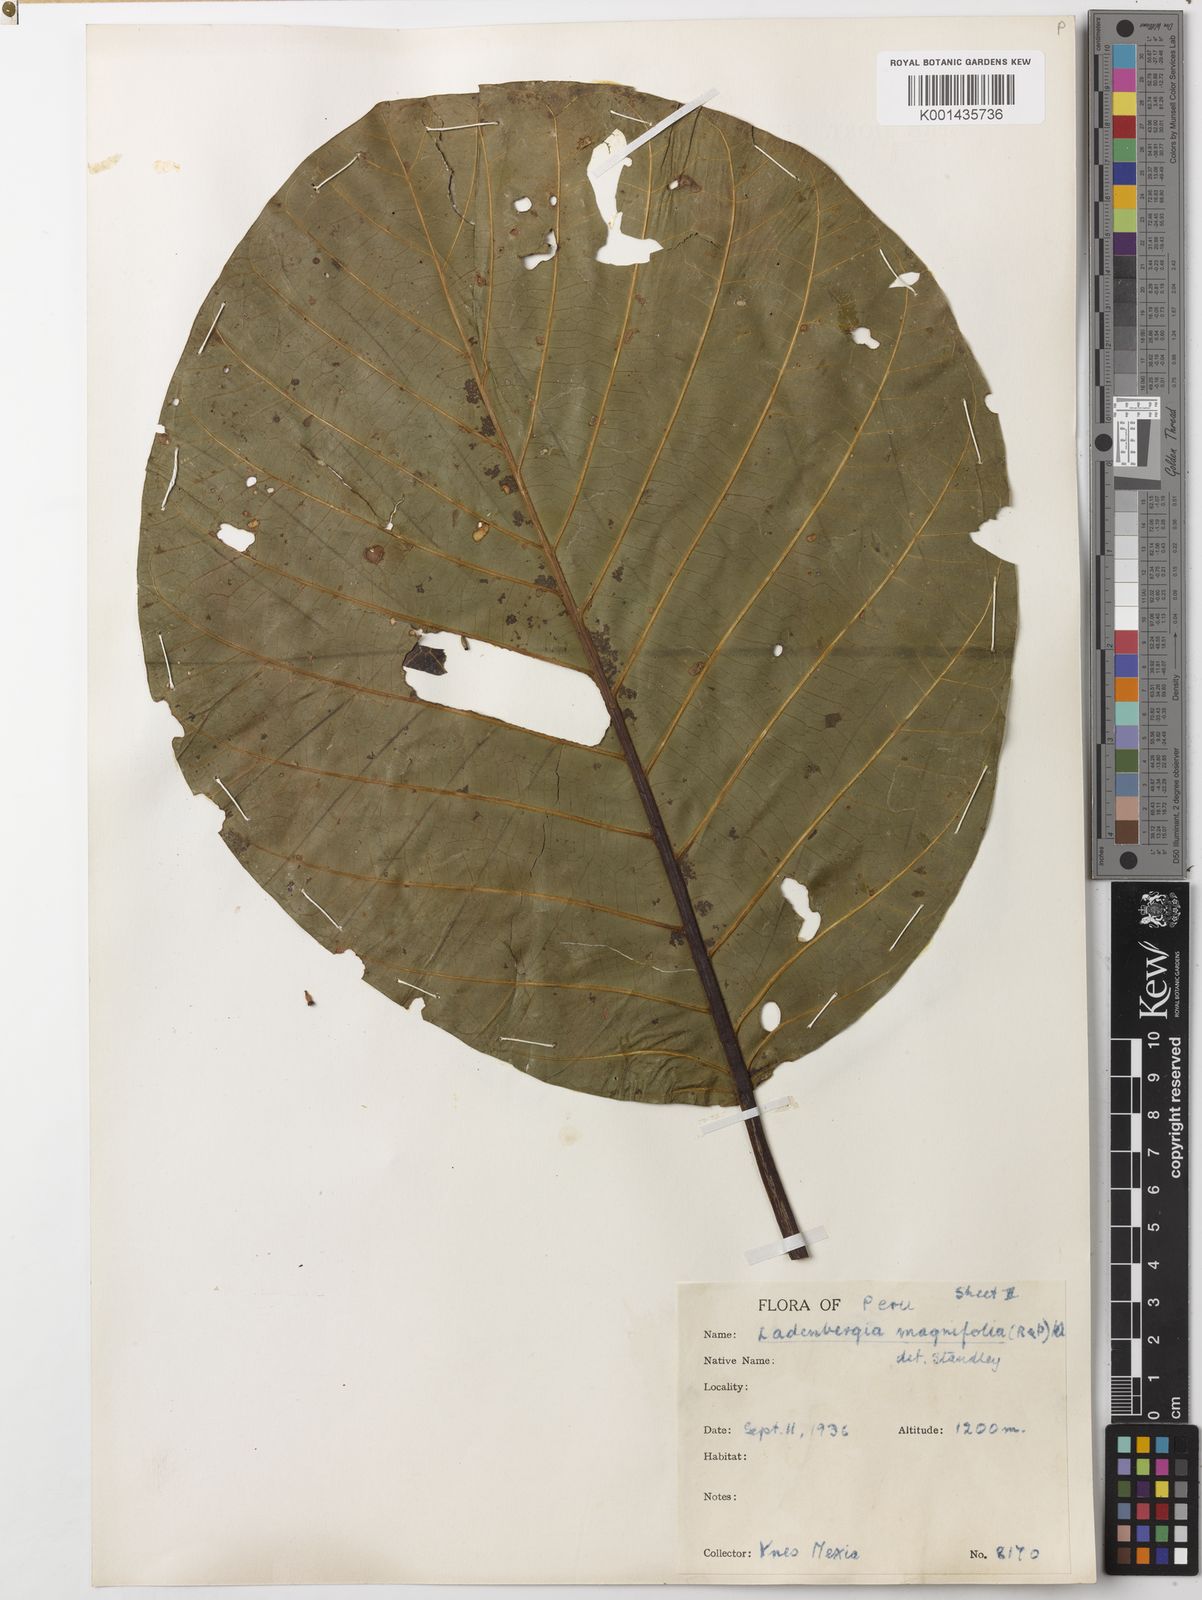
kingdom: Plantae
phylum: Tracheophyta
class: Magnoliopsida
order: Gentianales
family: Rubiaceae
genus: Ladenbergia
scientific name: Ladenbergia oblongifolia
